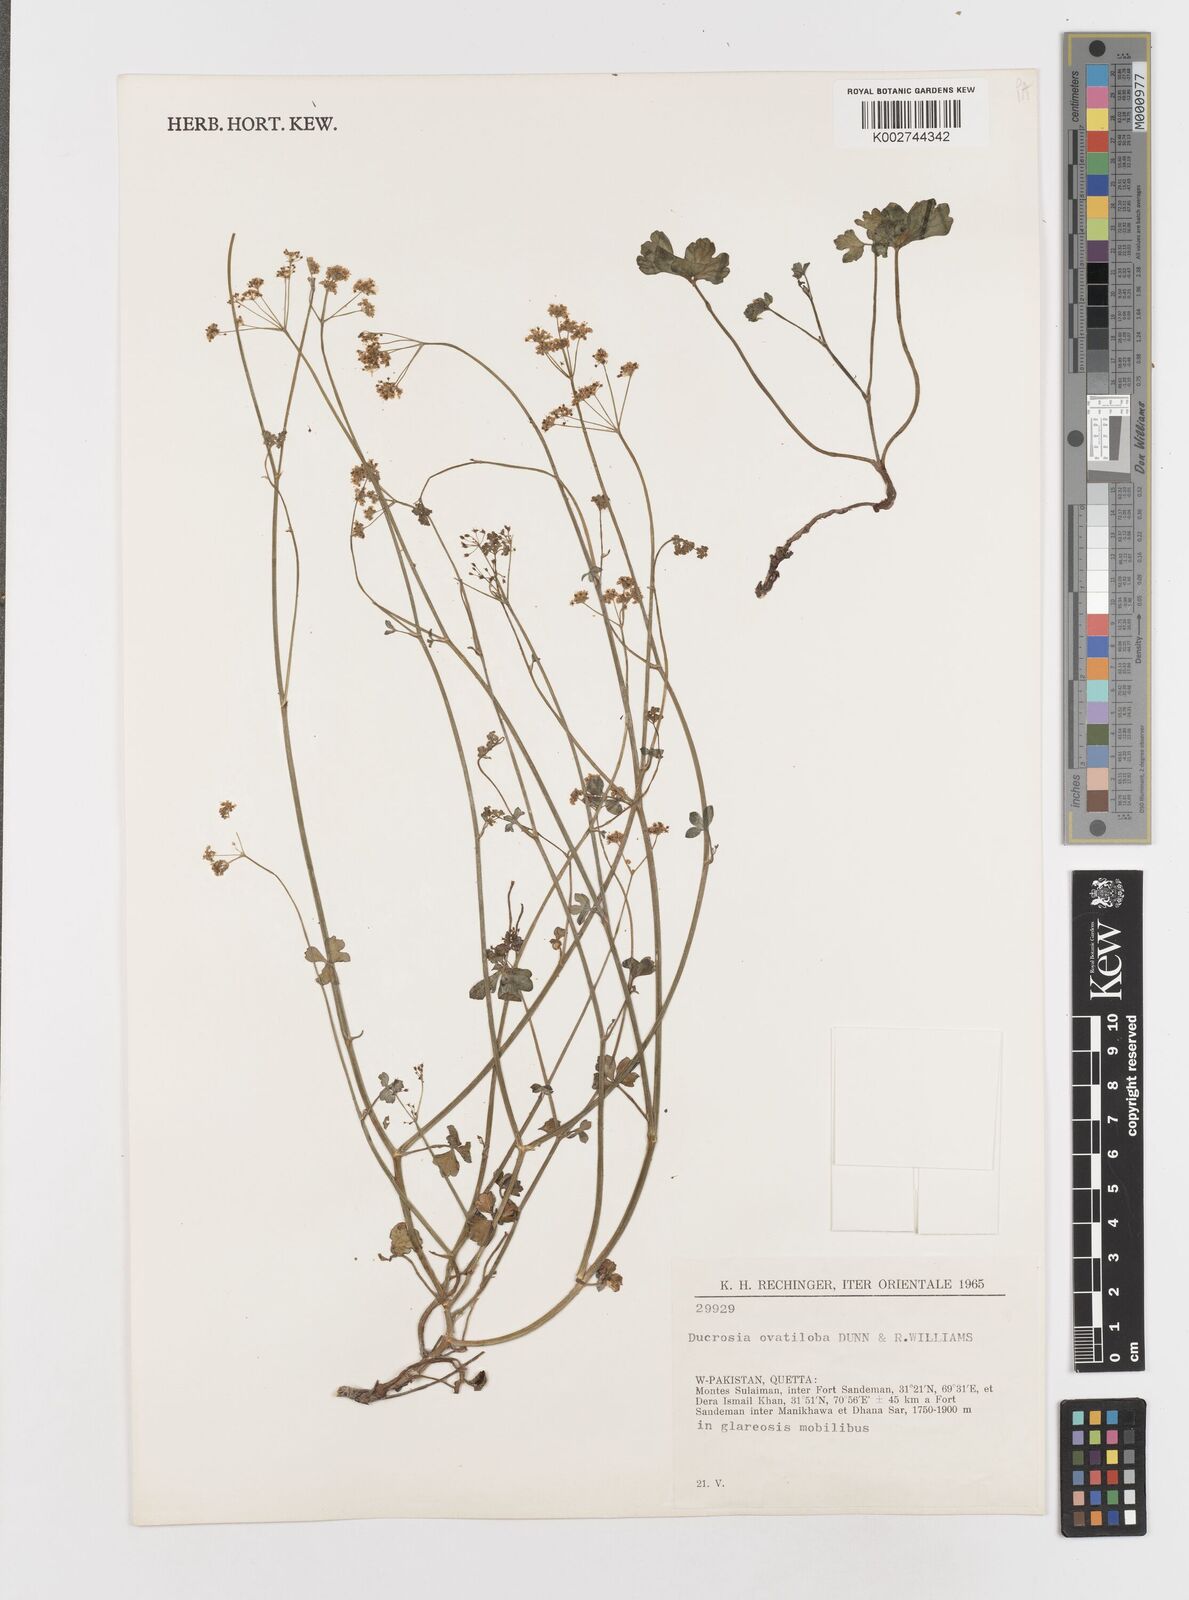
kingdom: Plantae
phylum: Tracheophyta
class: Magnoliopsida
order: Apiales
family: Apiaceae
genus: Tricholaser
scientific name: Tricholaser ovatilobum
